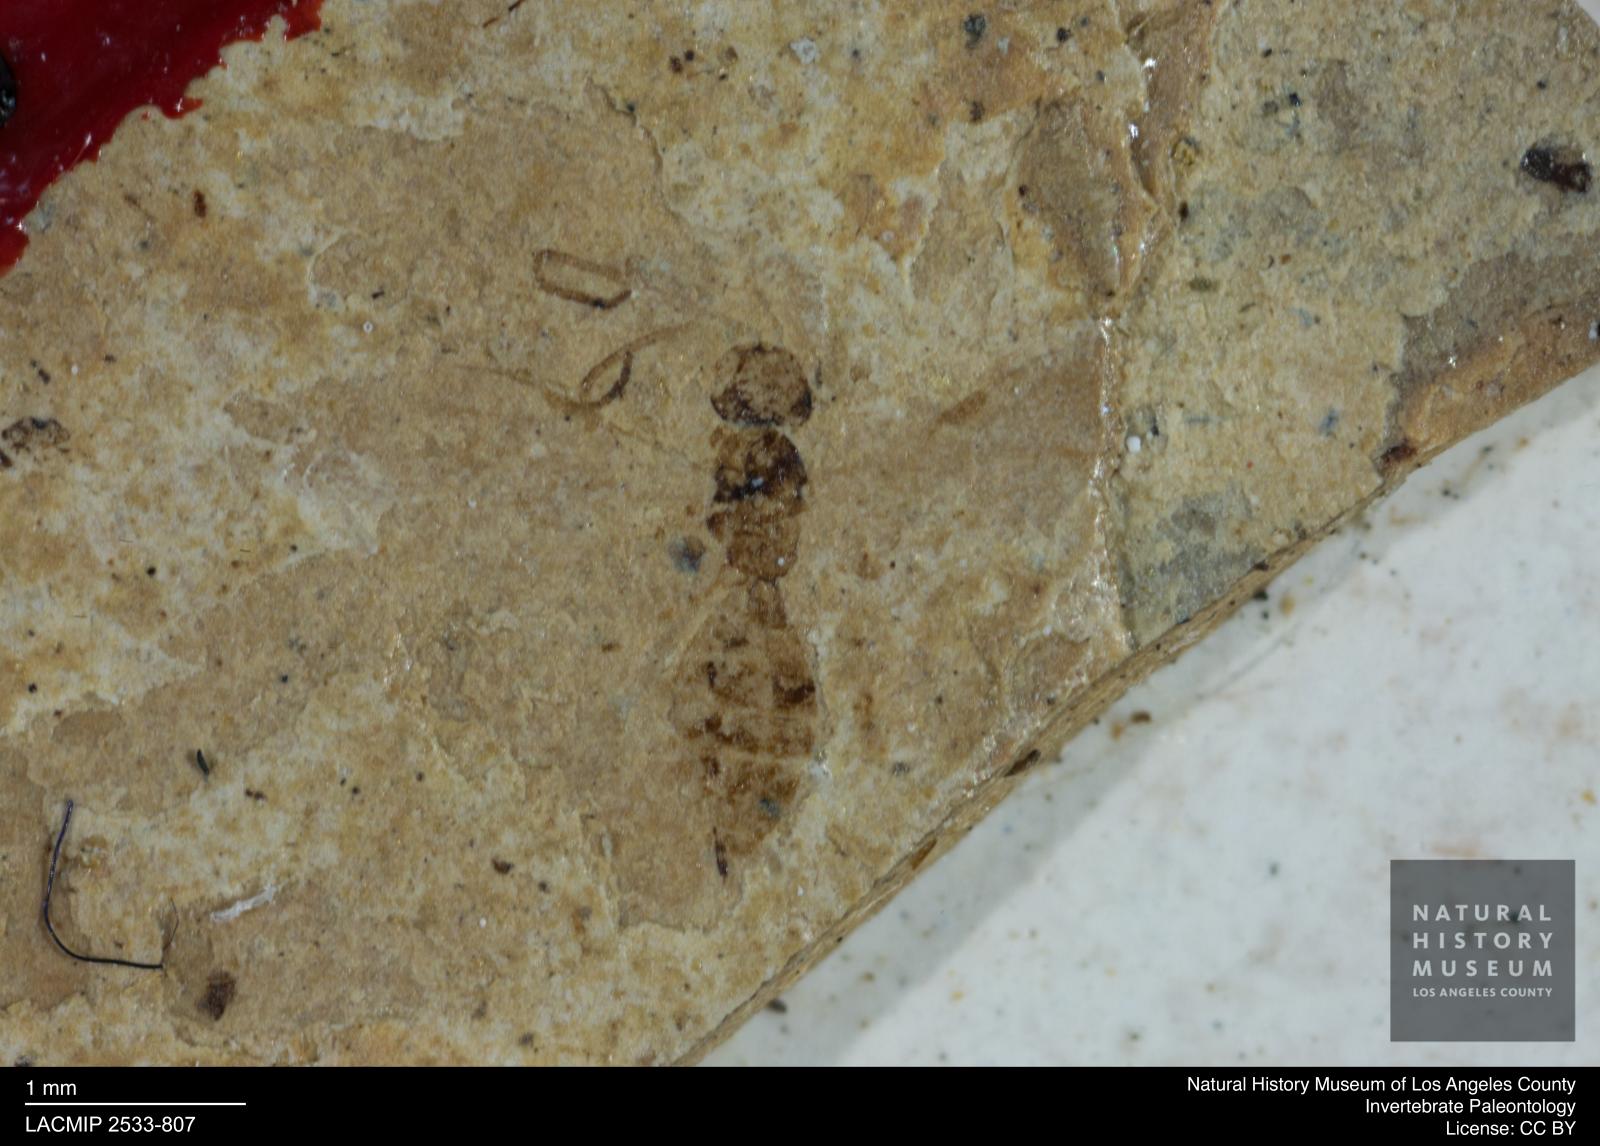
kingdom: Animalia
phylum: Arthropoda
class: Insecta
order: Hymenoptera
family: Braconidae
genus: Rogas
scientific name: Rogas festivus
